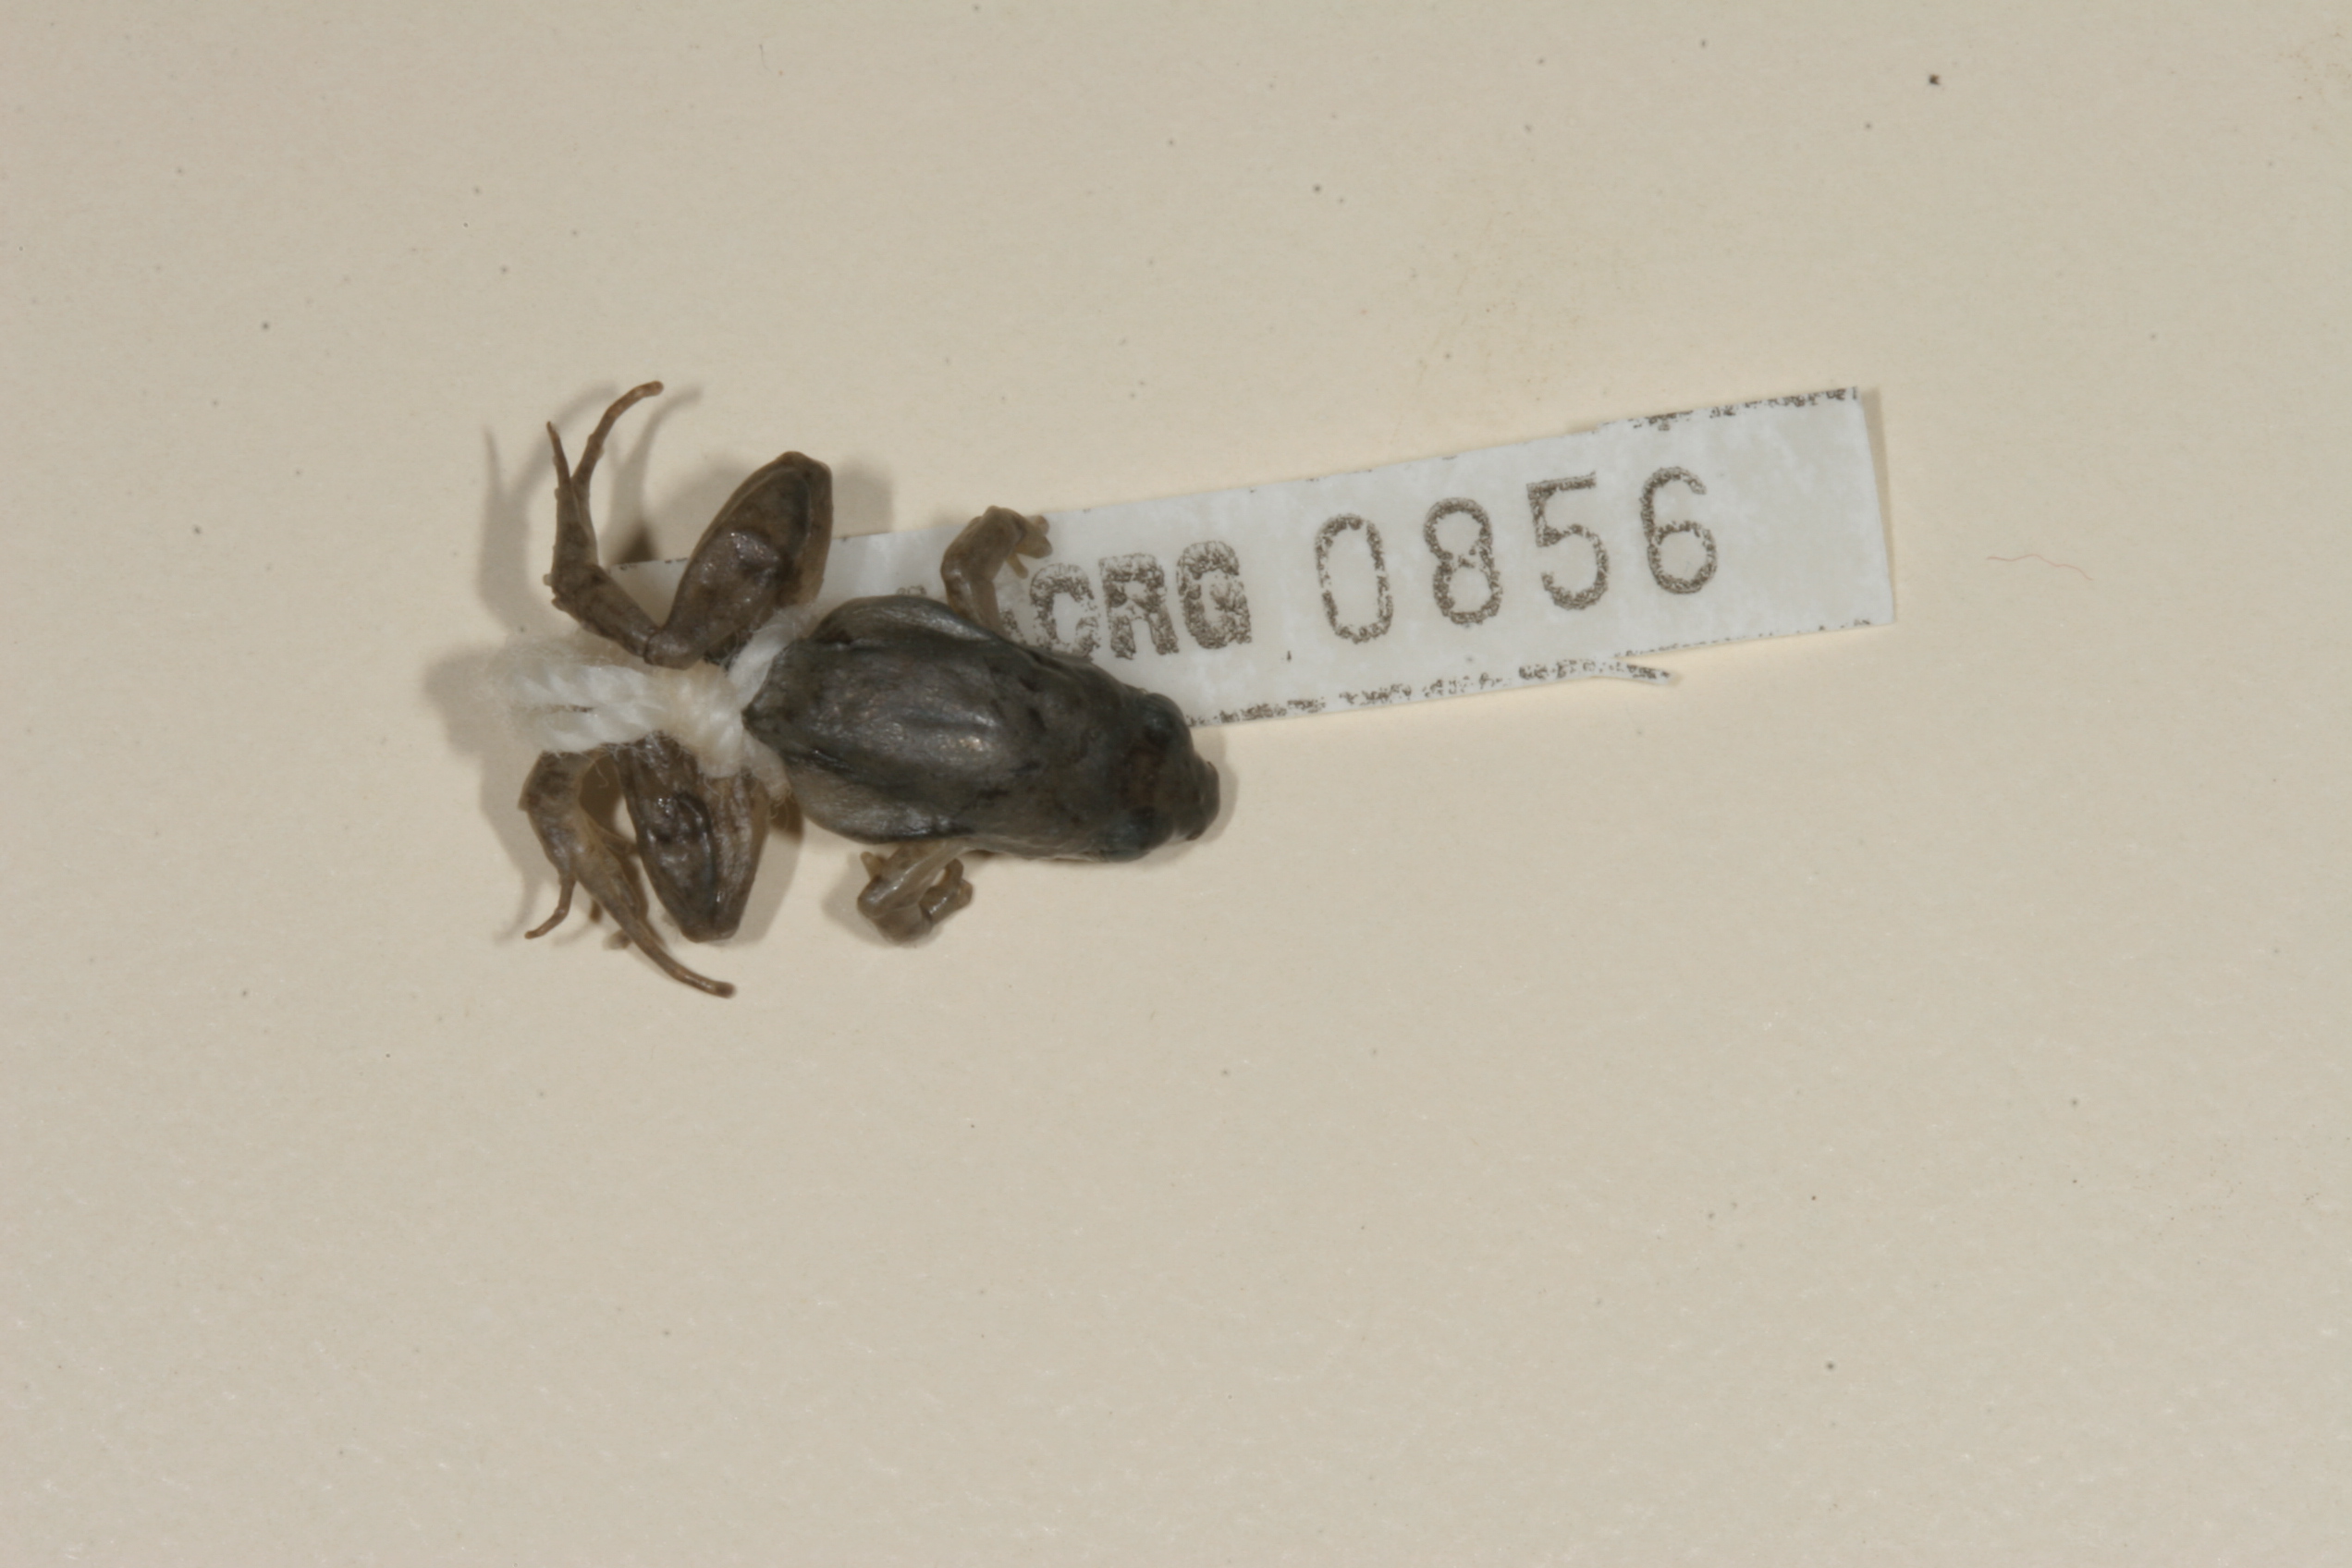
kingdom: Animalia
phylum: Chordata
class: Amphibia
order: Anura
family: Phrynobatrachidae
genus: Phrynobatrachus
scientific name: Phrynobatrachus mababiensis
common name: Dwarf puddle frog
